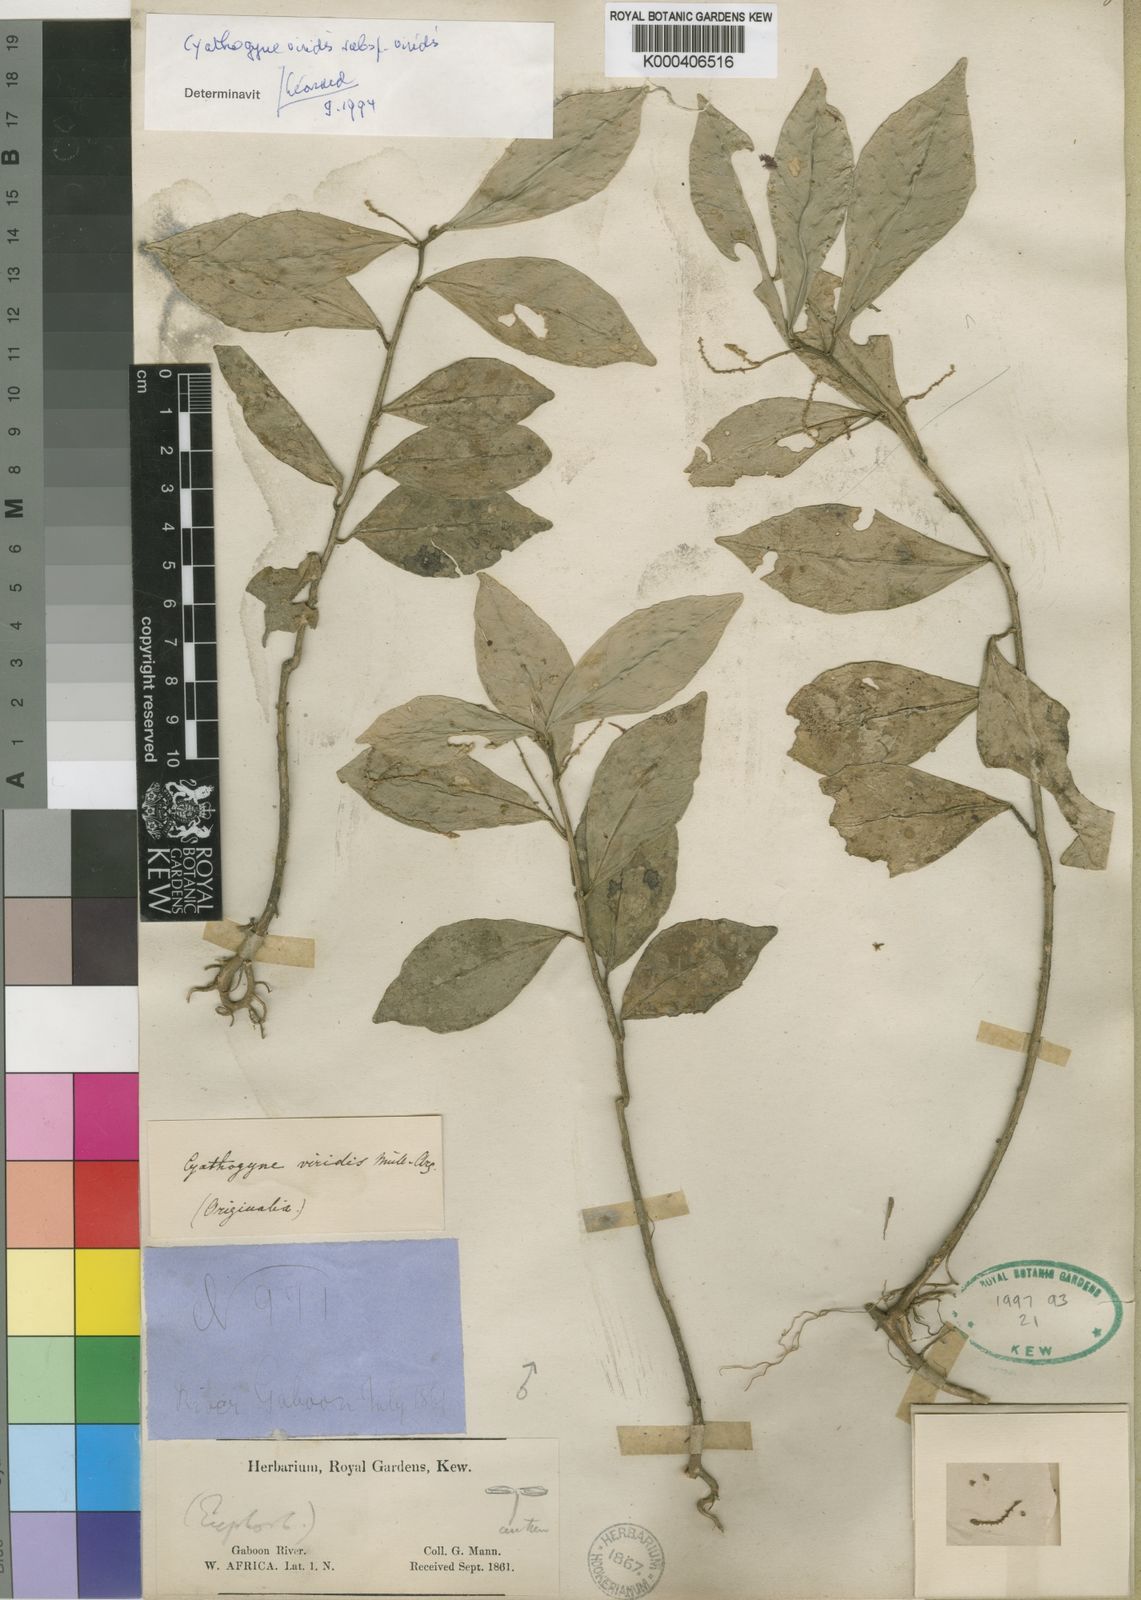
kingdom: Plantae
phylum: Tracheophyta
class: Magnoliopsida
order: Malpighiales
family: Phyllanthaceae
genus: Thecacoris
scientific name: Thecacoris
